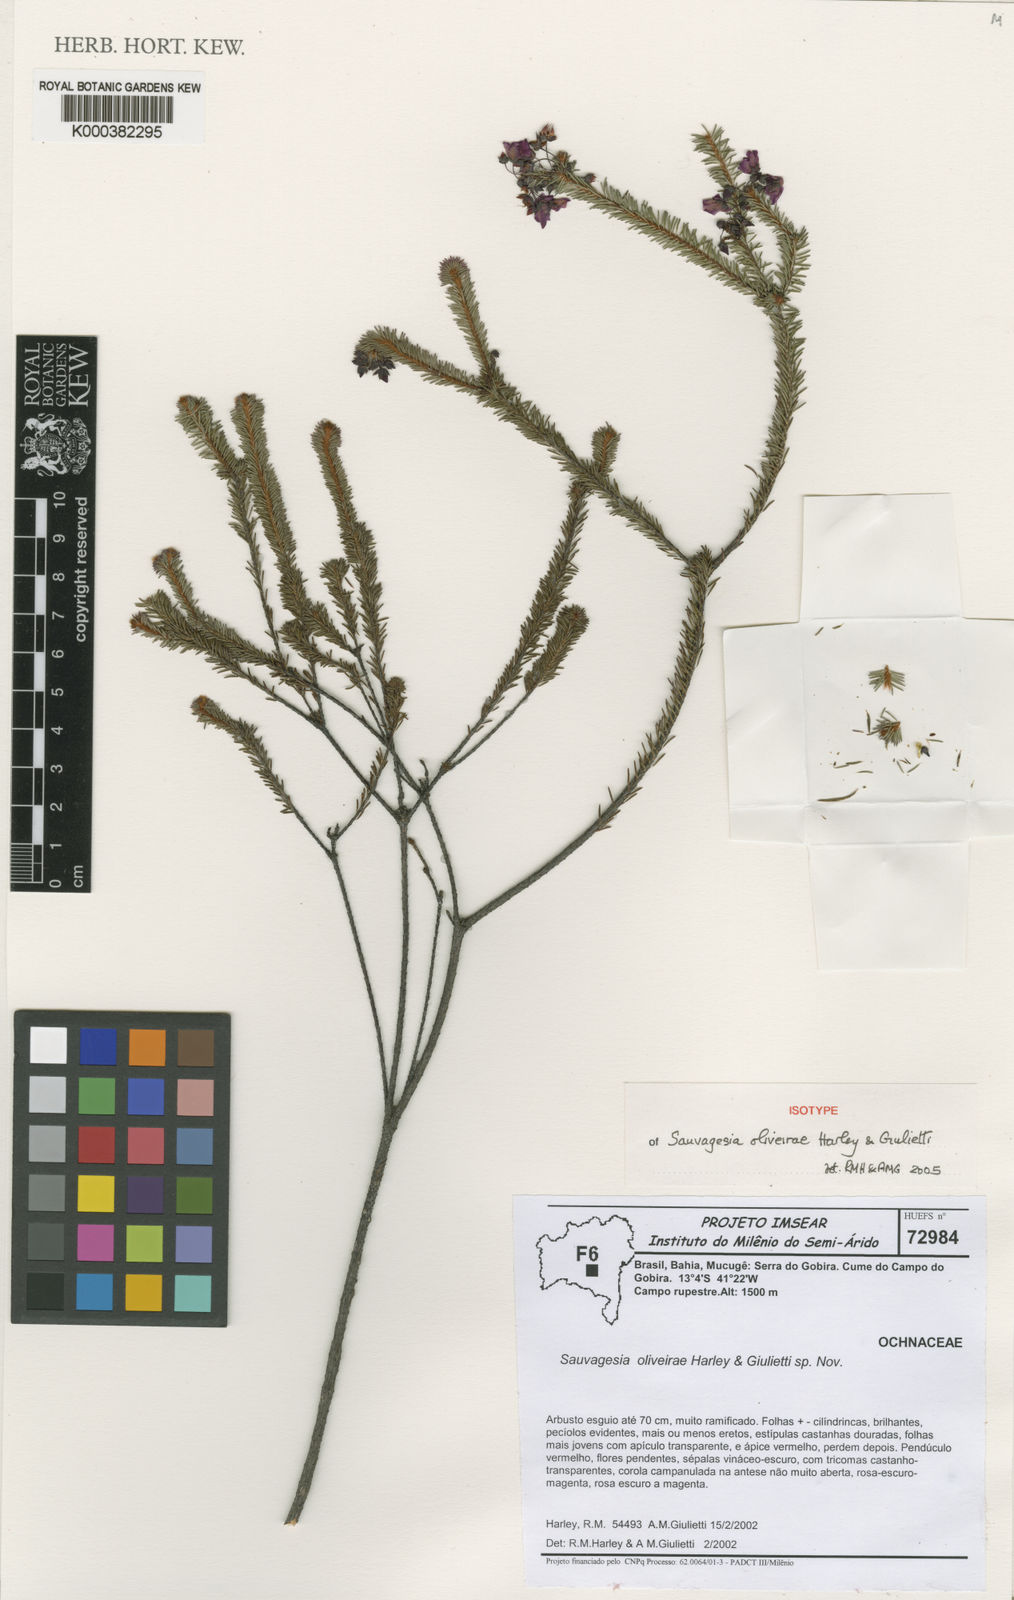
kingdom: Plantae
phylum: Tracheophyta
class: Magnoliopsida
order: Malpighiales
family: Ochnaceae
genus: Sauvagesia
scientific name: Sauvagesia oliveirae
